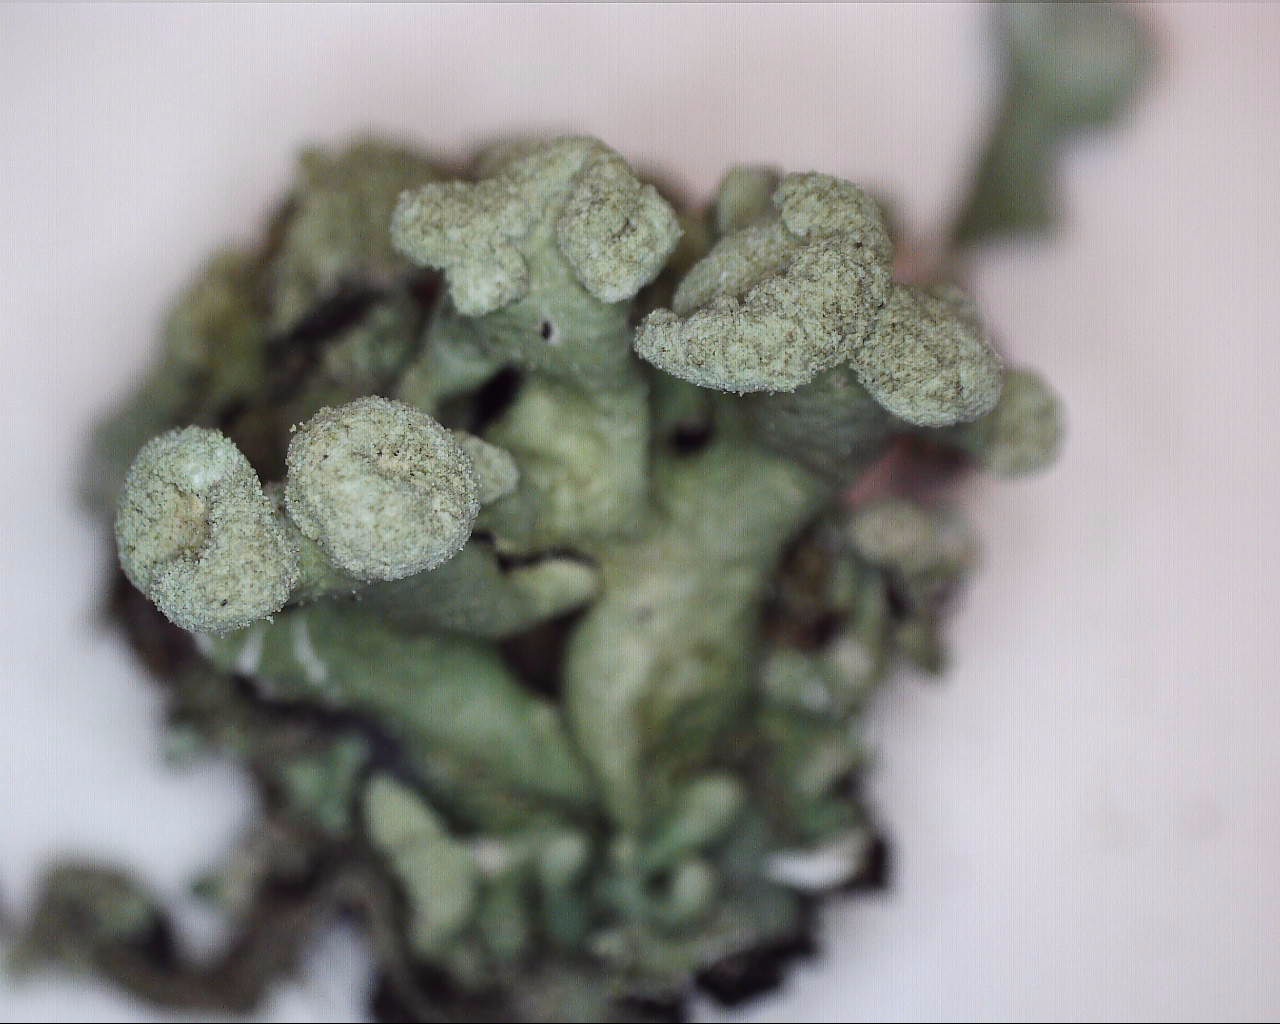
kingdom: Fungi
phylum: Ascomycota
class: Lecanoromycetes
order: Lecanorales
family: Parmeliaceae
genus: Hypogymnia
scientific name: Hypogymnia tubulosa
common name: finger-kvistlav
